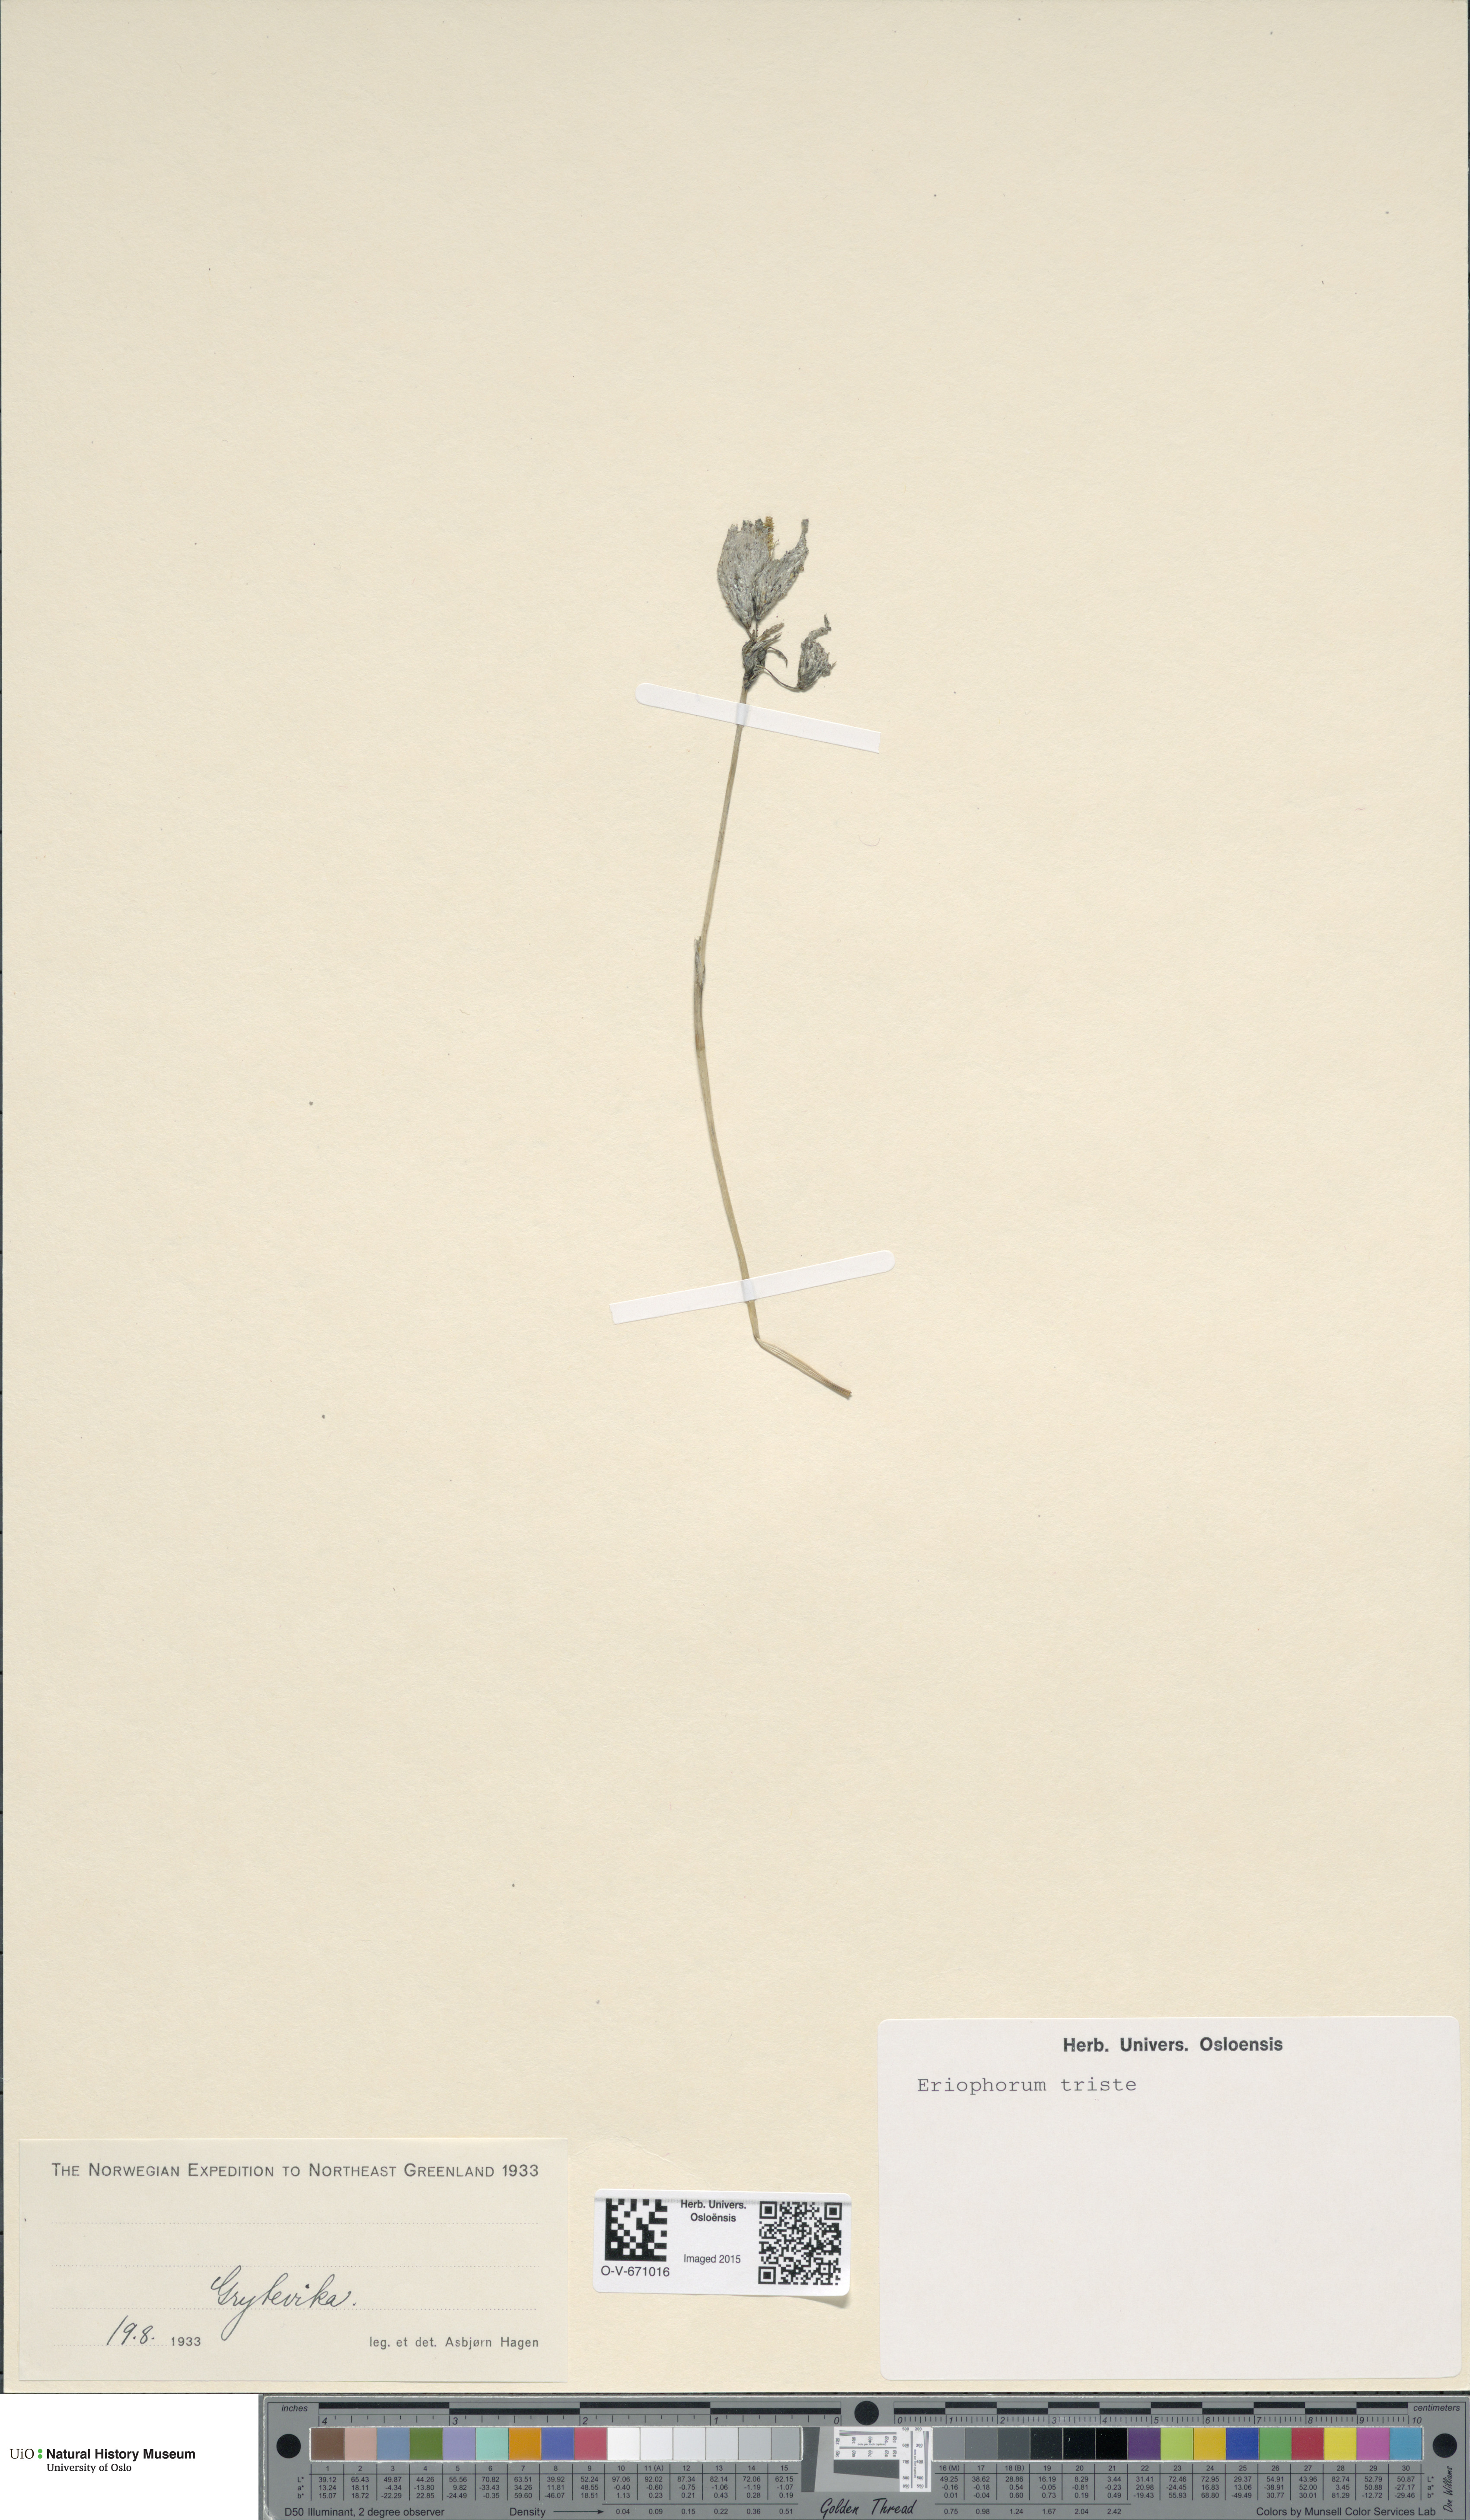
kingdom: Plantae
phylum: Tracheophyta
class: Liliopsida
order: Poales
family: Cyperaceae
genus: Eriophorum
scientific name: Eriophorum triste
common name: Tall cottongrass
